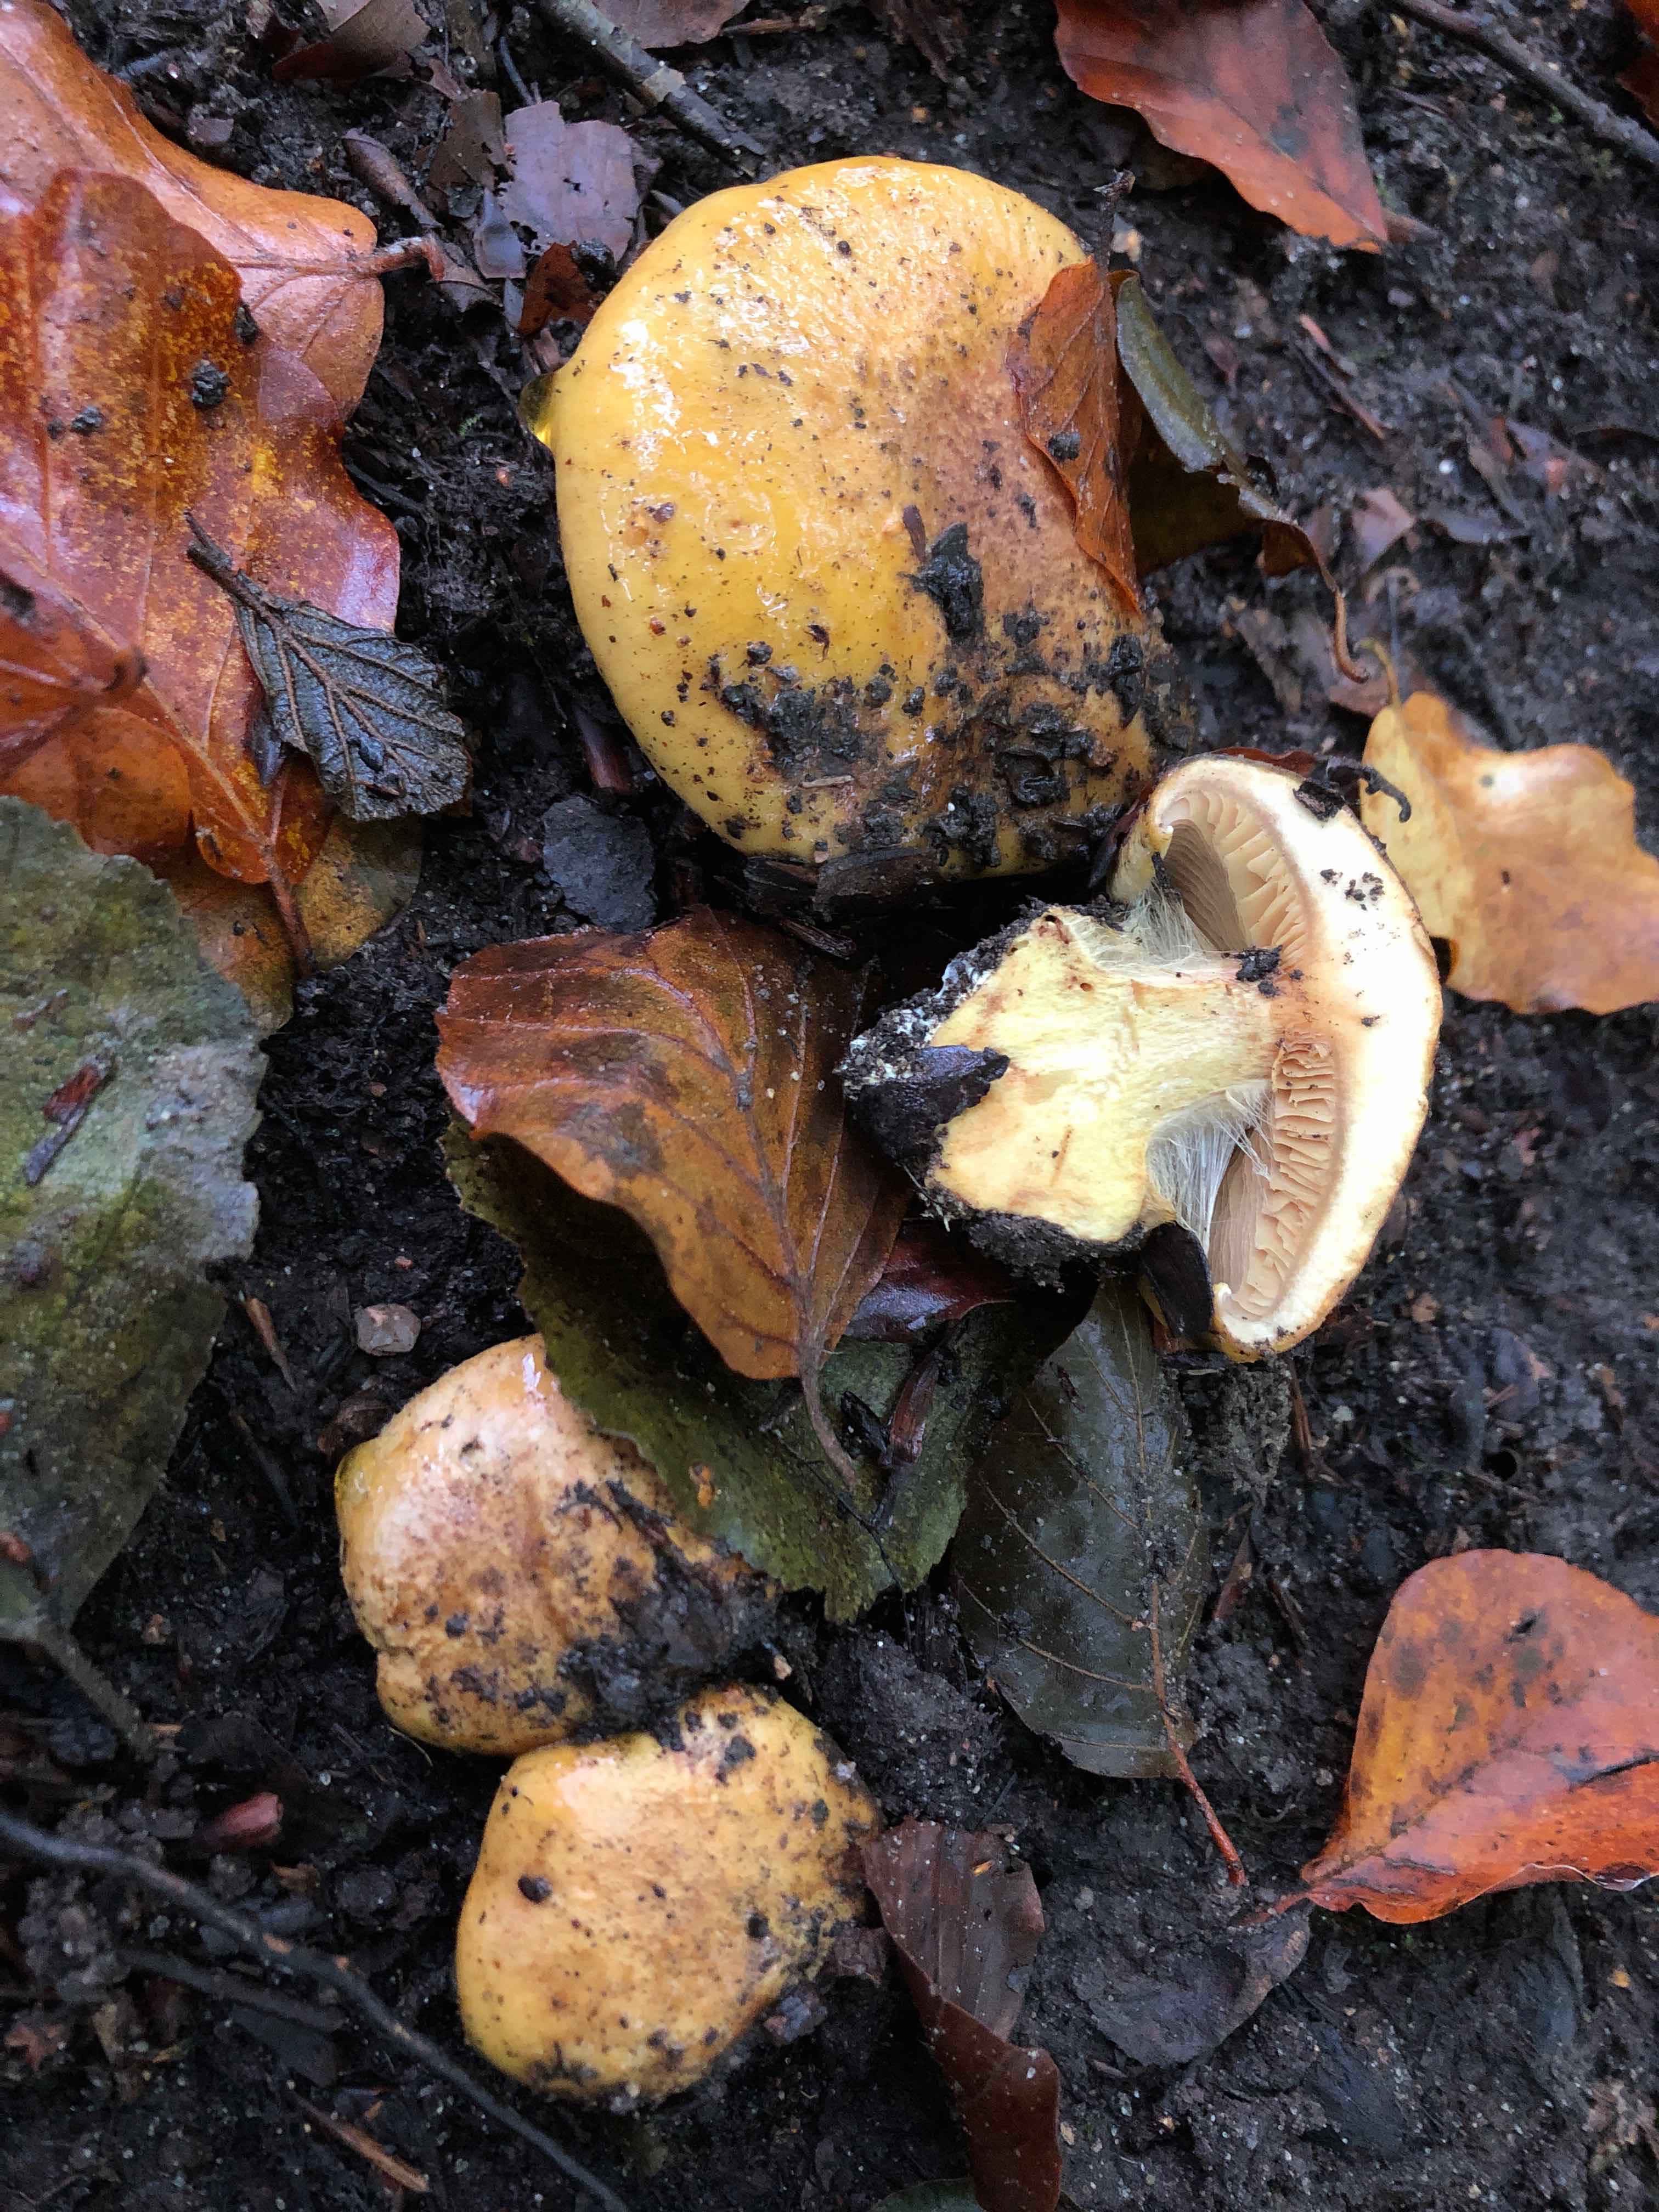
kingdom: Fungi
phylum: Basidiomycota
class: Agaricomycetes
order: Agaricales
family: Cortinariaceae
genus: Calonarius
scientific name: Calonarius alcalinophilus
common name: gyldenbrun slørhat
